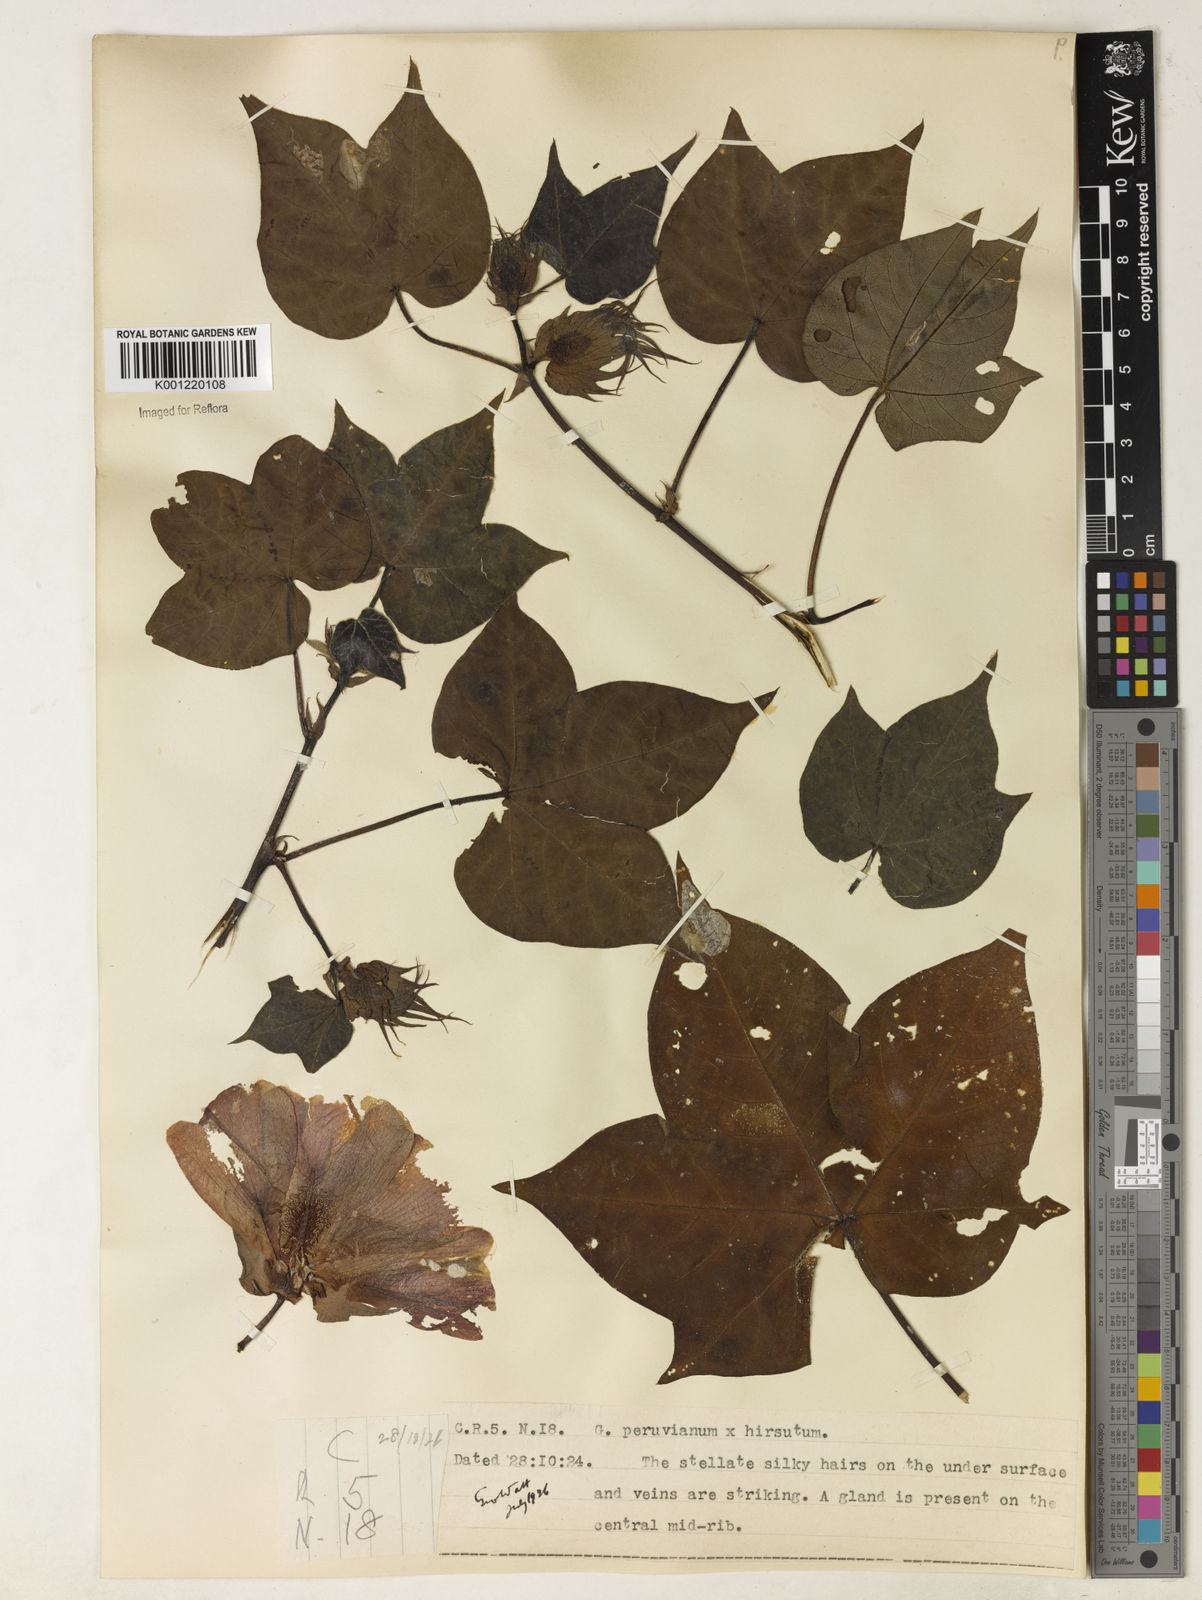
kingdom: Plantae
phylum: Tracheophyta
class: Magnoliopsida
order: Malvales
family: Malvaceae
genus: Gossypium
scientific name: Gossypium
